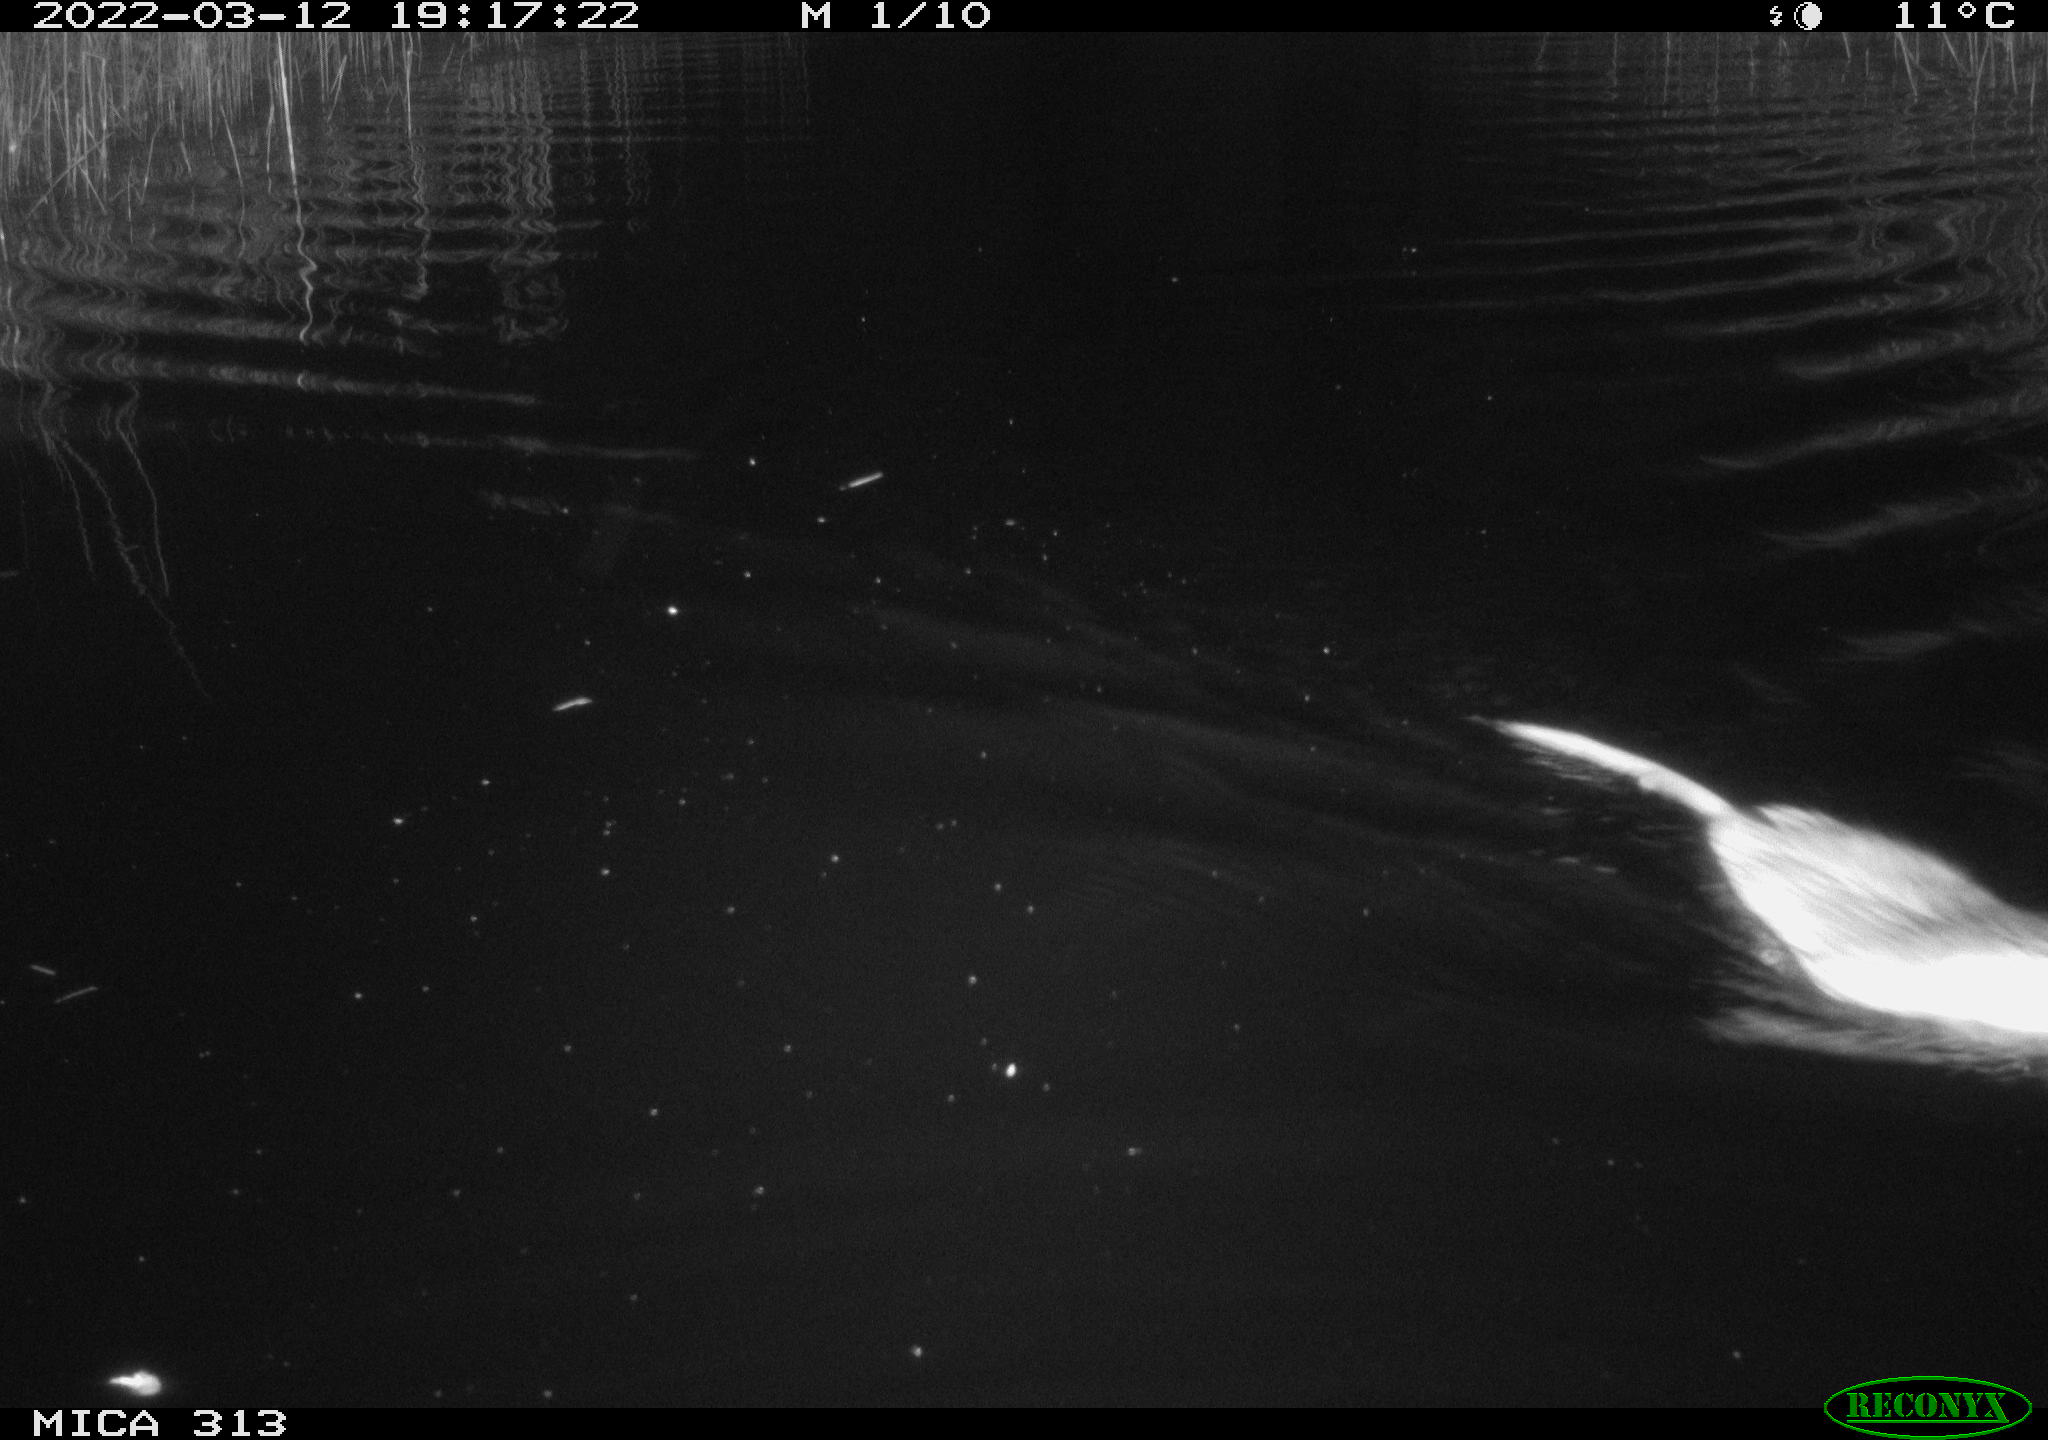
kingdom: Animalia
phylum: Chordata
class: Mammalia
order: Rodentia
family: Cricetidae
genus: Ondatra
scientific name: Ondatra zibethicus
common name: Muskrat
